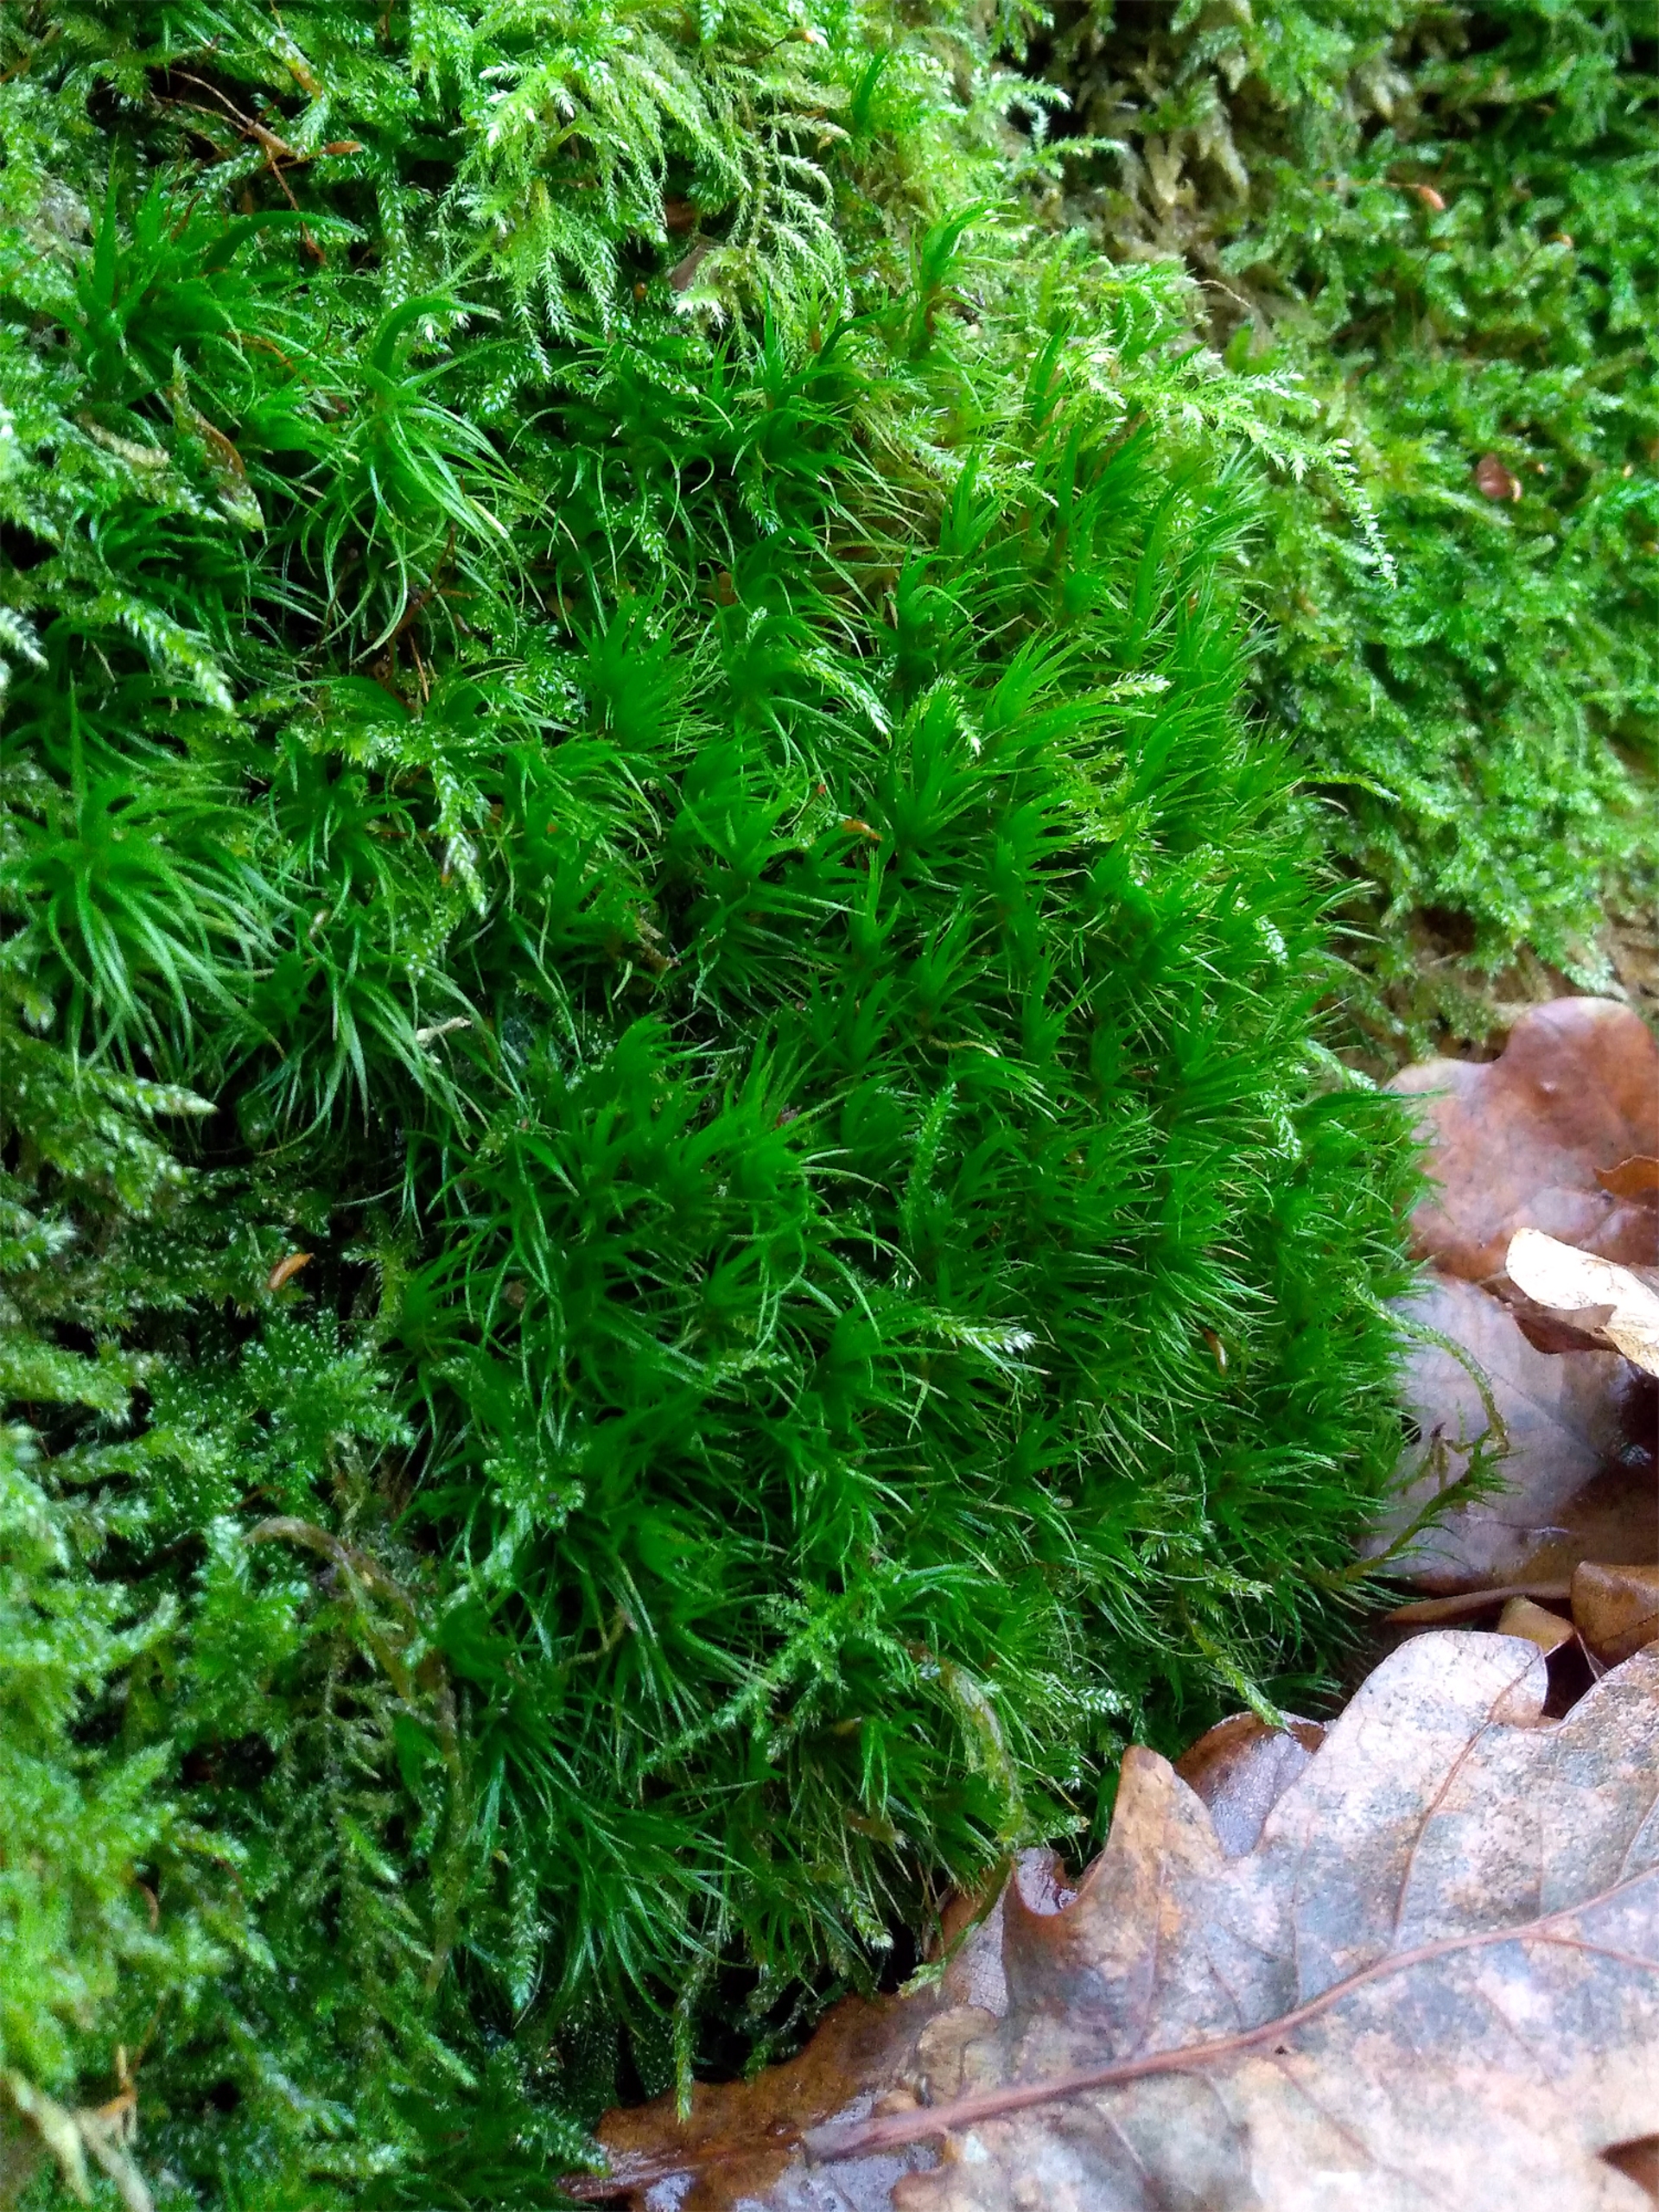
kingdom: Plantae
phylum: Bryophyta
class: Bryopsida
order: Dicranales
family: Dicranaceae
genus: Dicranum
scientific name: Dicranum majus
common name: Stor kløvtand
